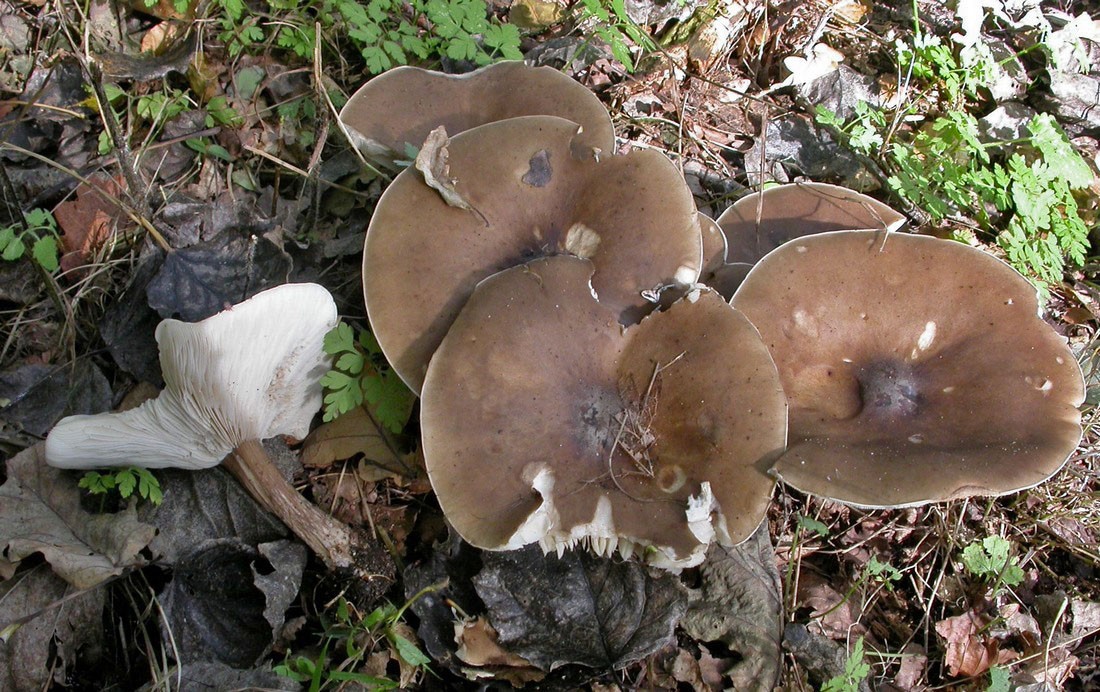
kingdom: Fungi
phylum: Basidiomycota
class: Agaricomycetes
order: Agaricales
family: Tricholomataceae
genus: Melanoleuca
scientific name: Melanoleuca polioleuca
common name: almindelig munkehat
